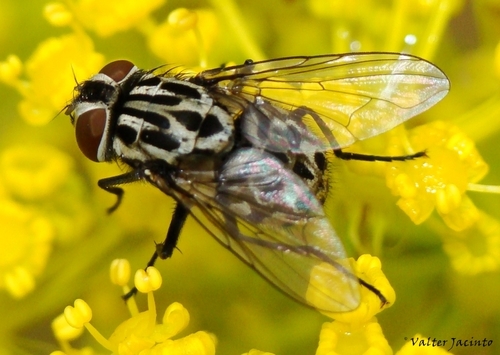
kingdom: Animalia
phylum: Arthropoda
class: Insecta
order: Diptera
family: Muscidae
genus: Graphomya
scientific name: Graphomya maculata
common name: Muscid fly
